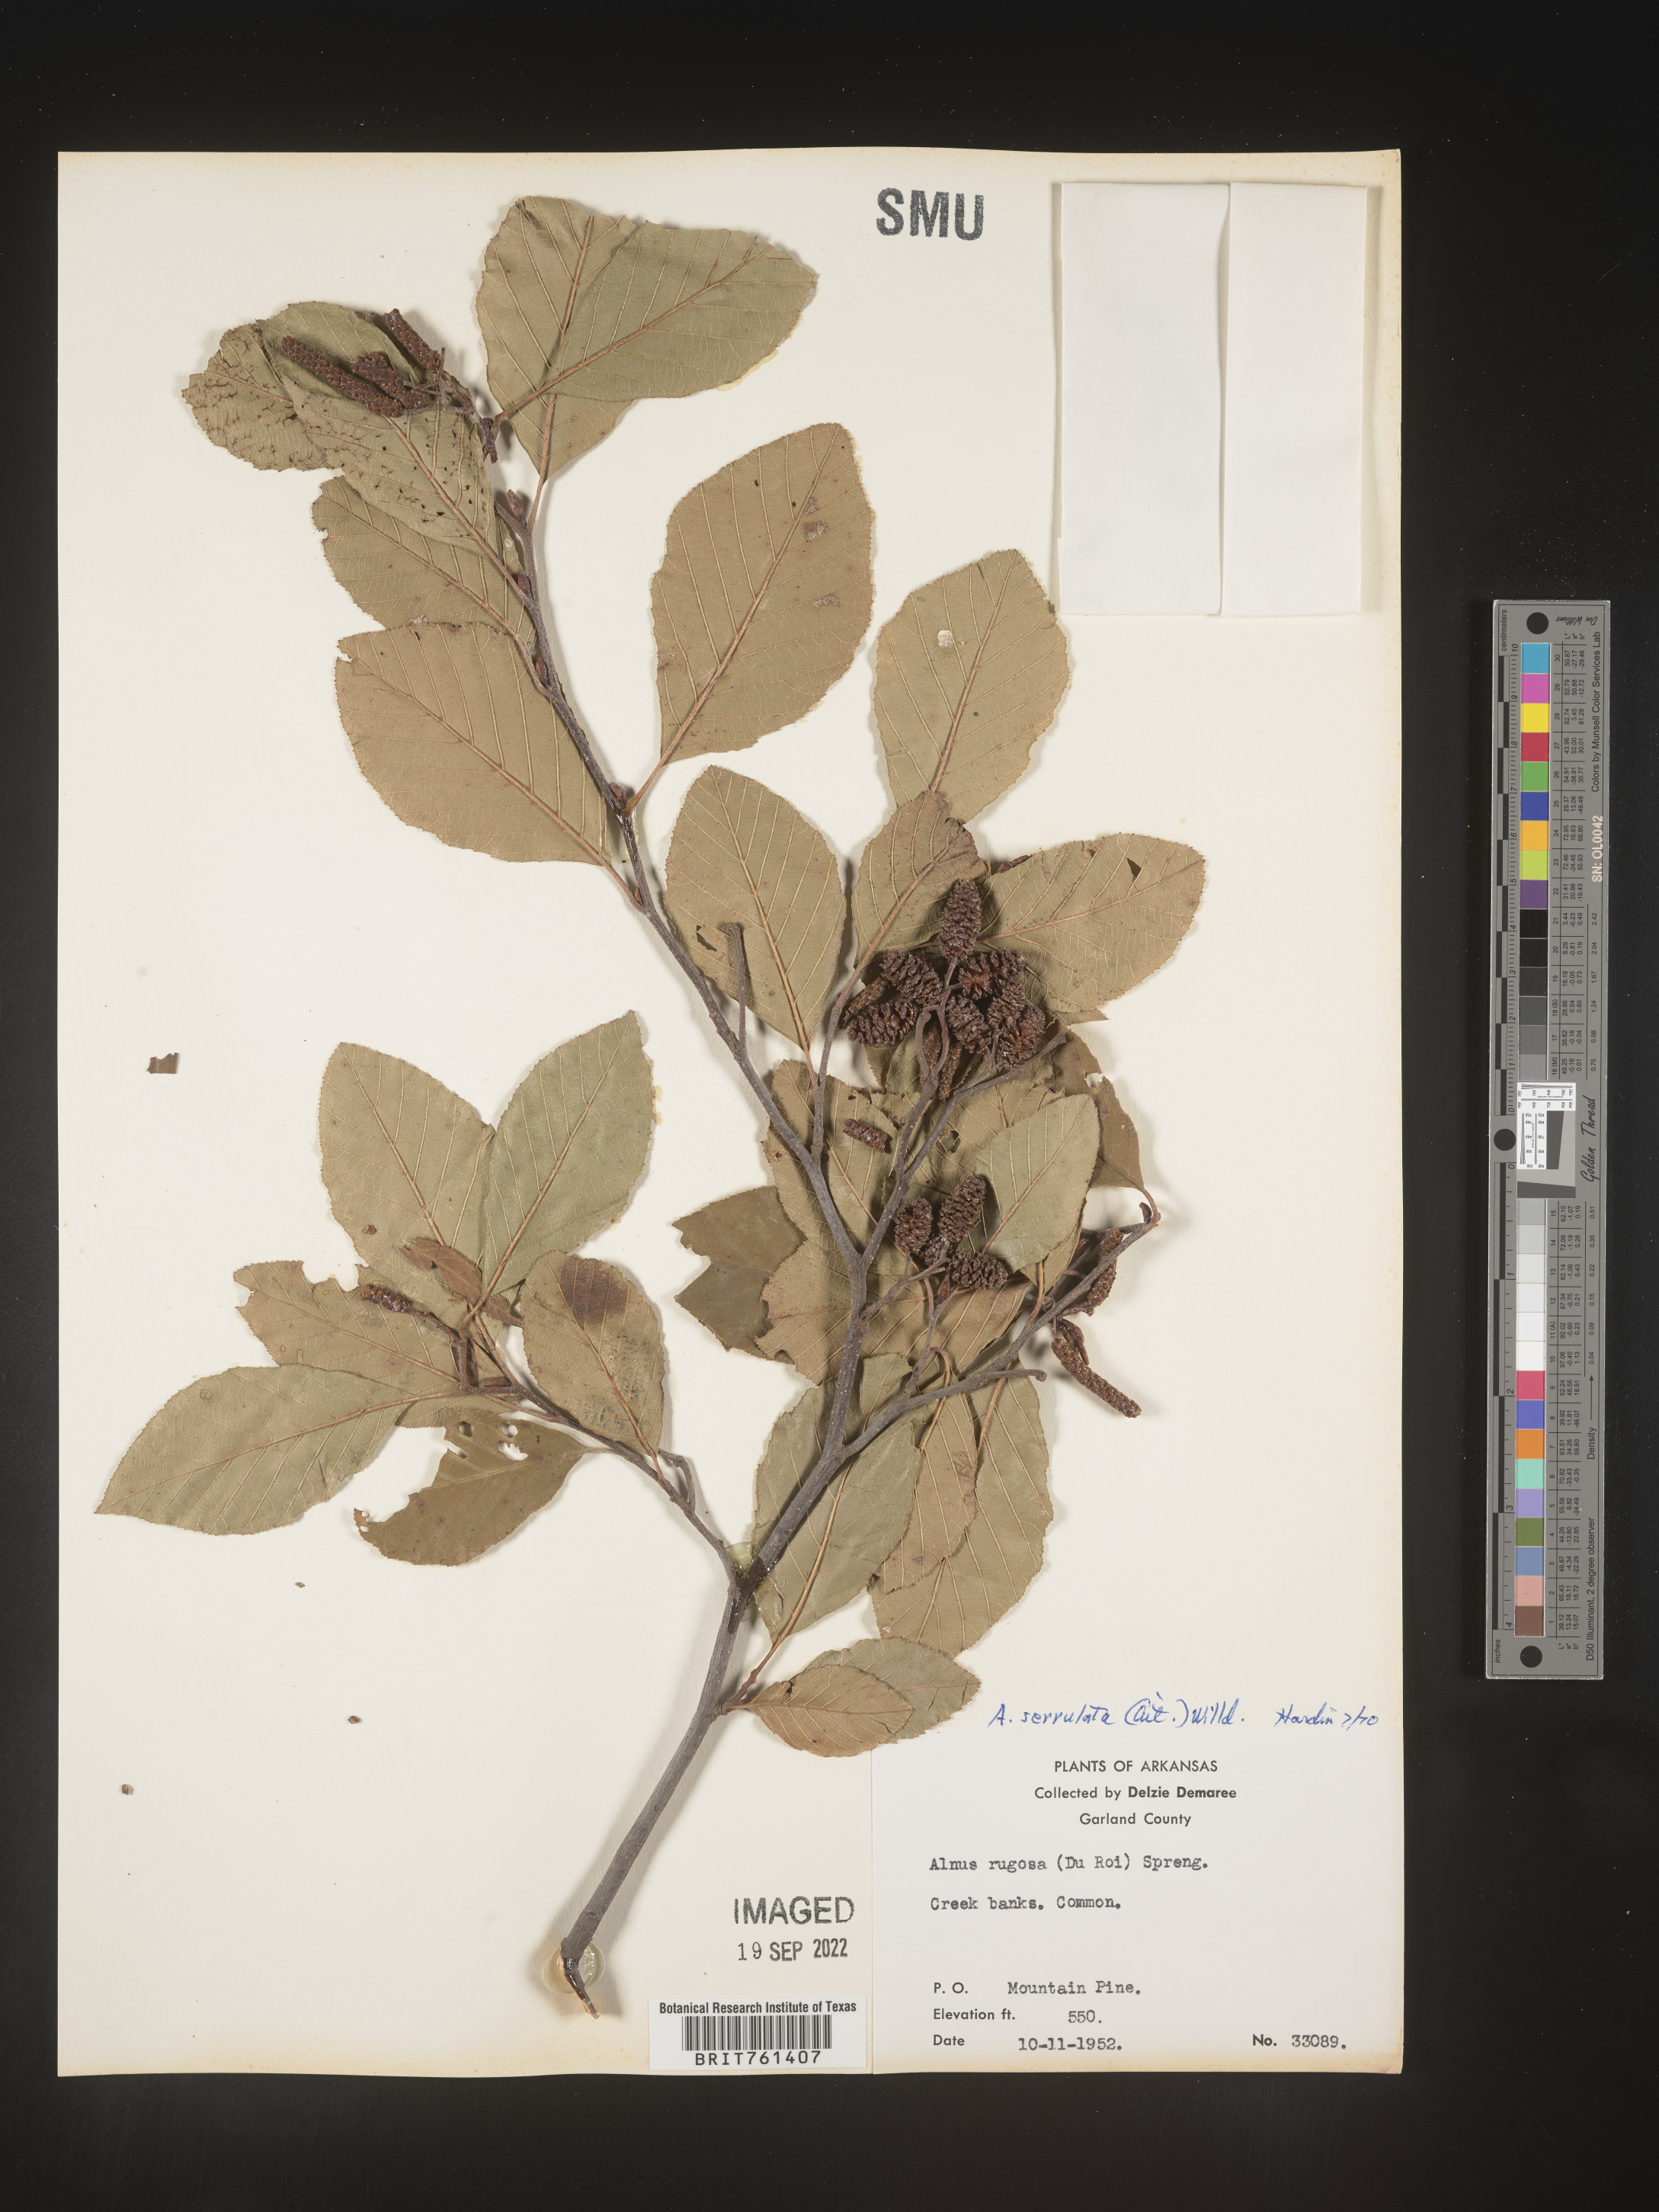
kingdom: Plantae
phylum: Tracheophyta
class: Magnoliopsida
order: Fagales
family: Betulaceae
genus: Alnus
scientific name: Alnus serrulata
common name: Hazel alder
